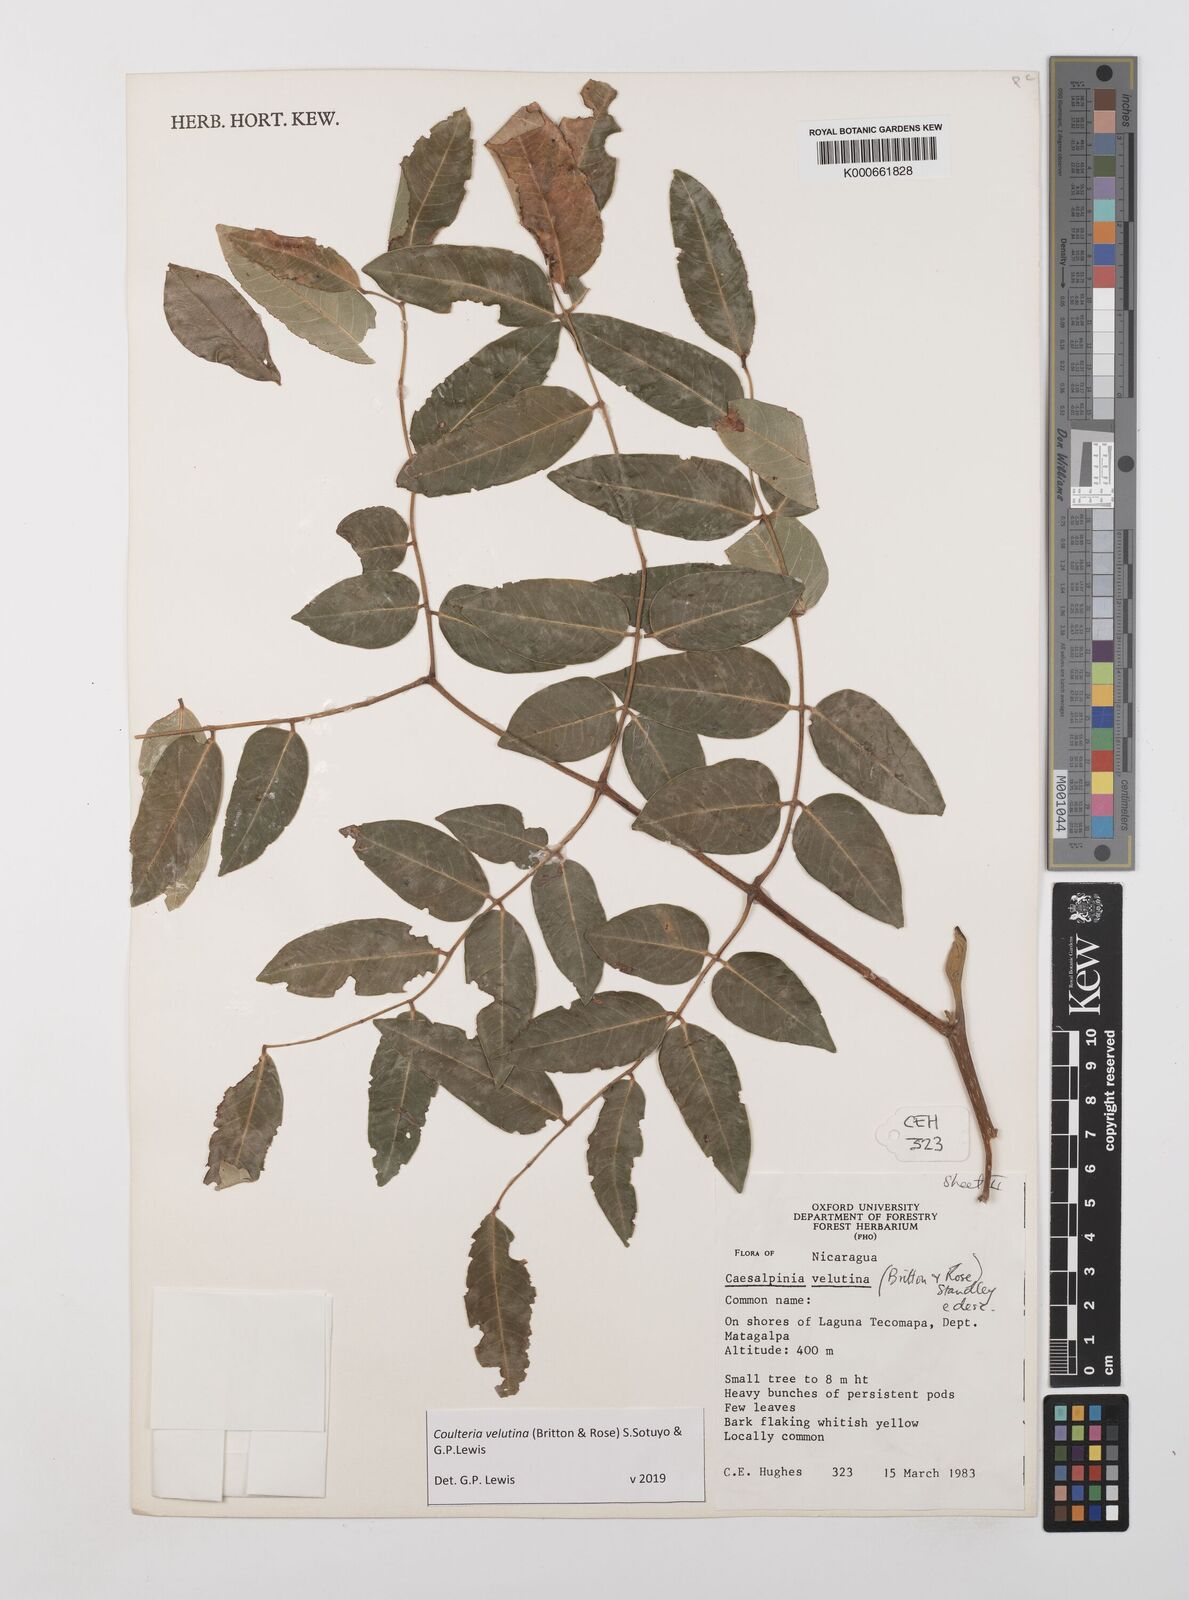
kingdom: Plantae
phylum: Tracheophyta
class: Magnoliopsida
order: Fabales
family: Fabaceae
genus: Coulteria
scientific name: Coulteria velutina
